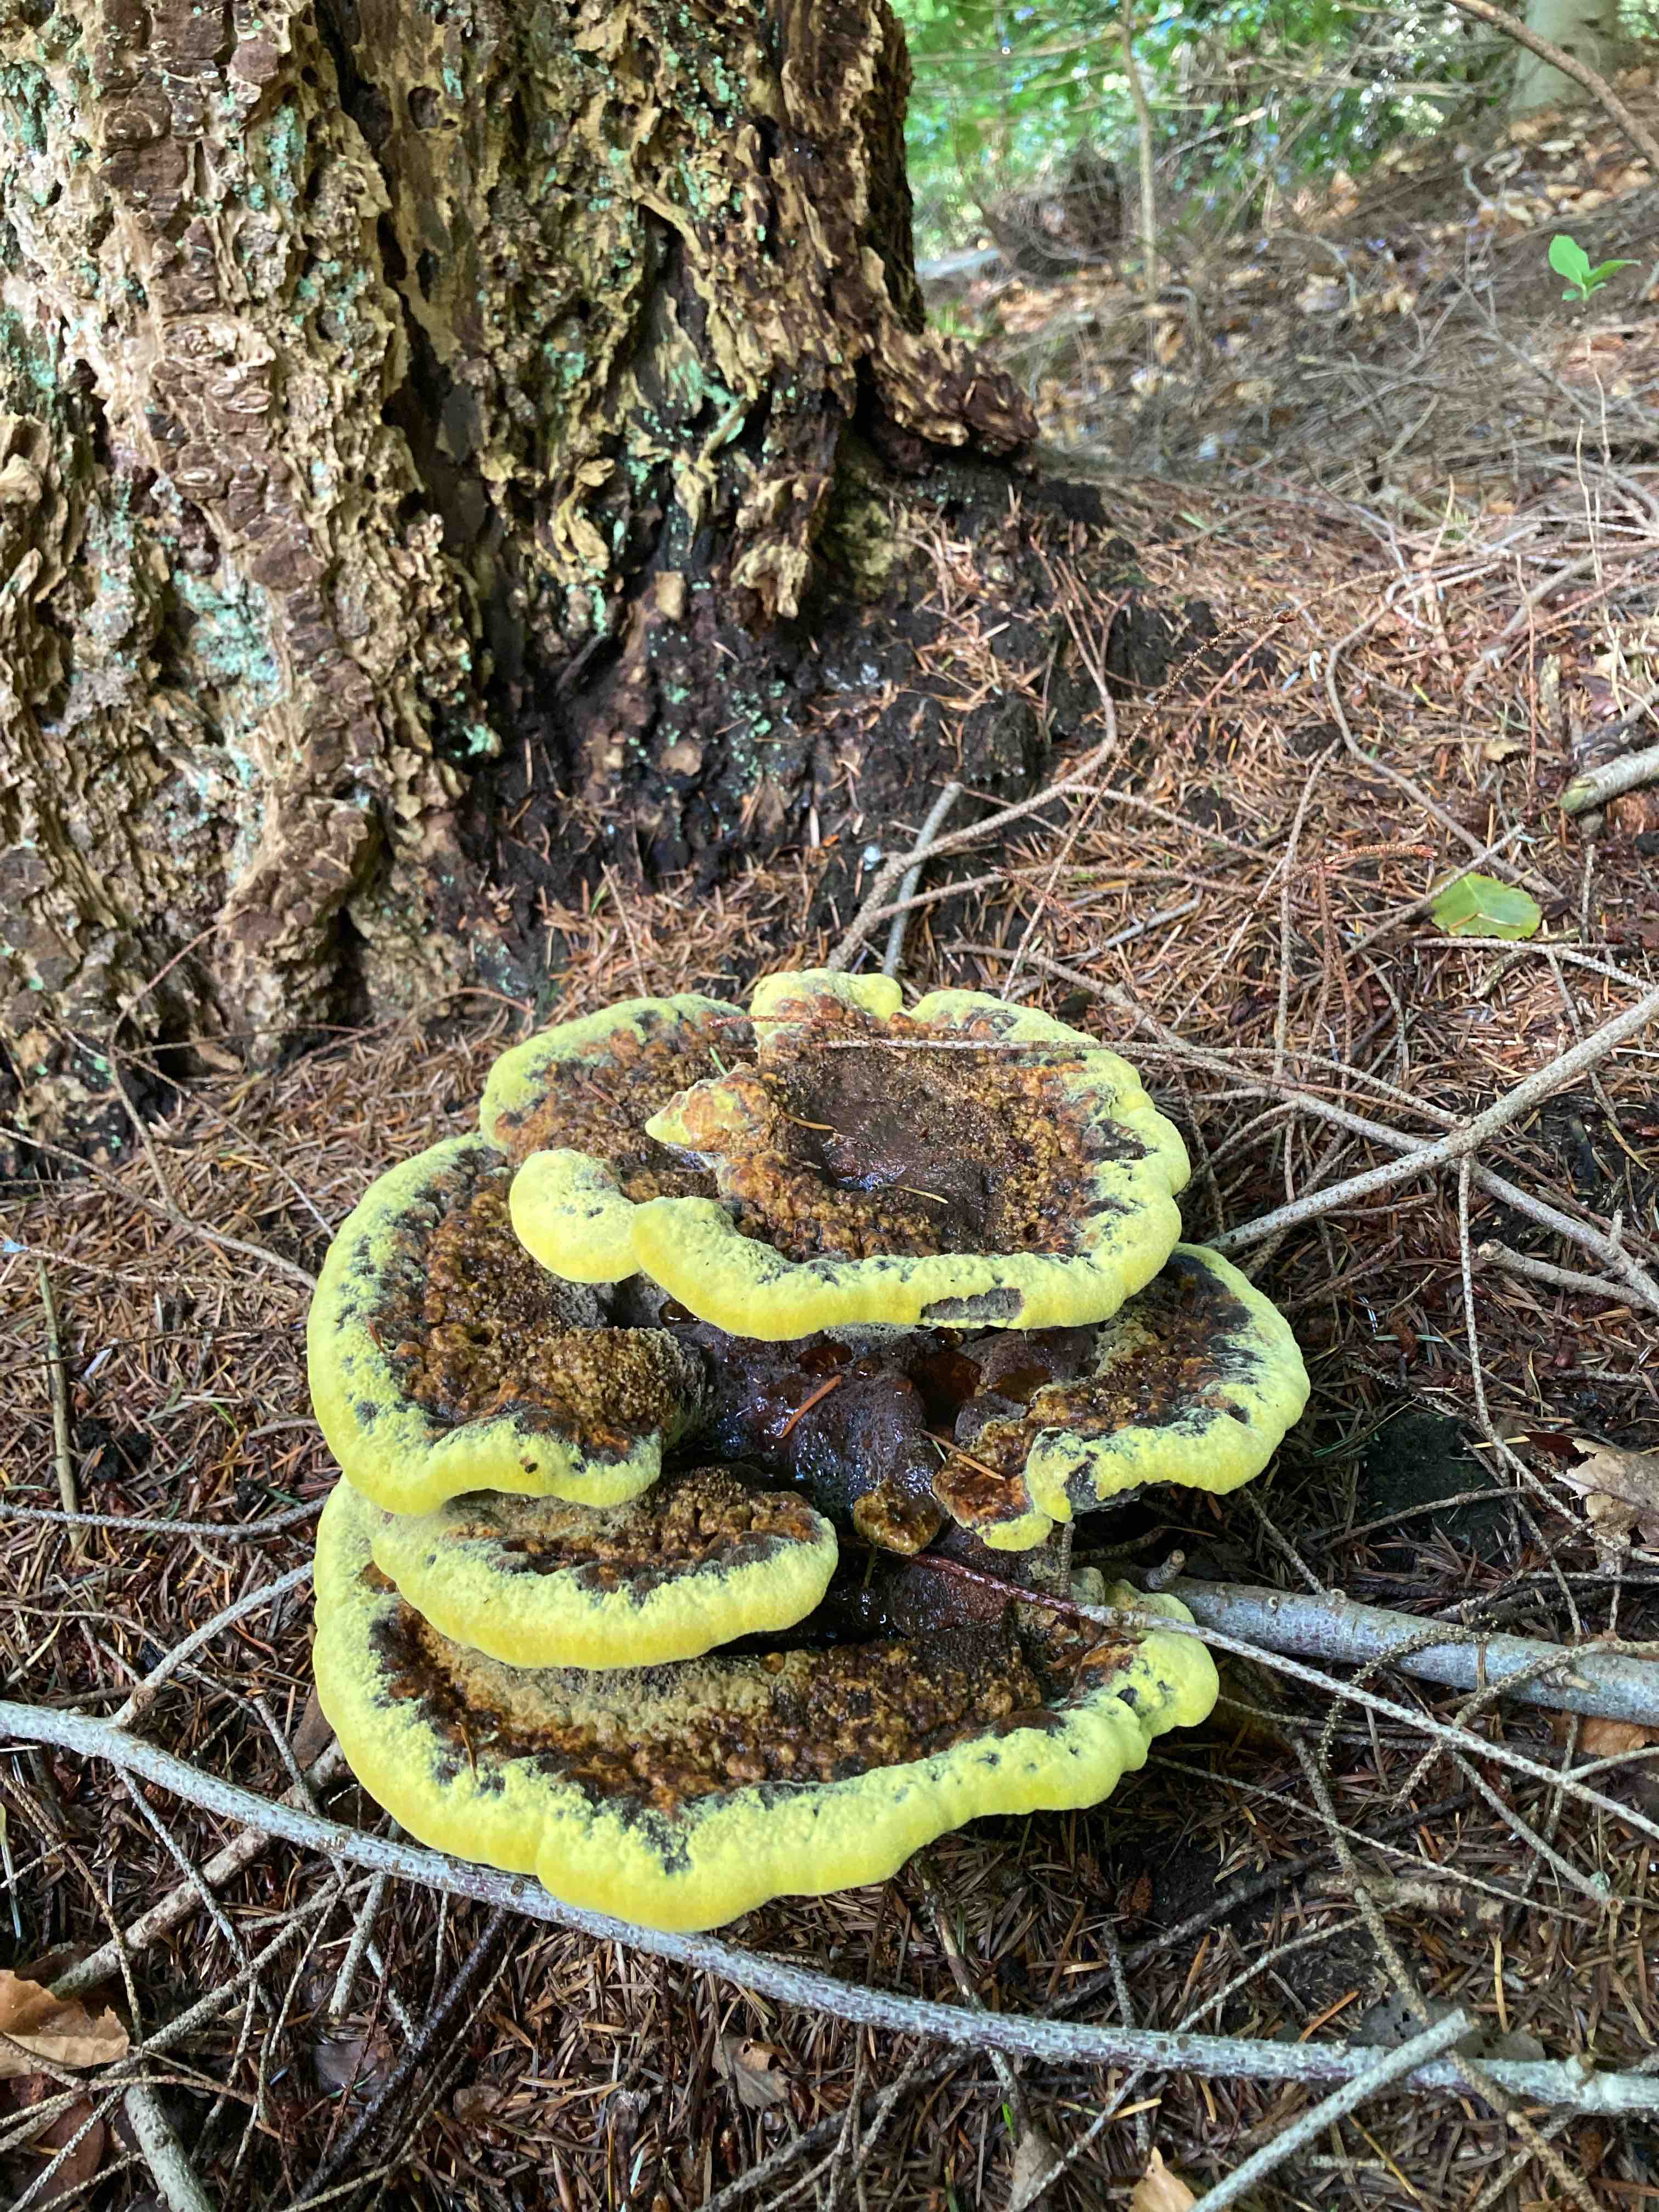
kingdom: Fungi
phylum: Basidiomycota
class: Agaricomycetes
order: Polyporales
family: Laetiporaceae
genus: Phaeolus
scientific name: Phaeolus schweinitzii
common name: brunporesvamp
